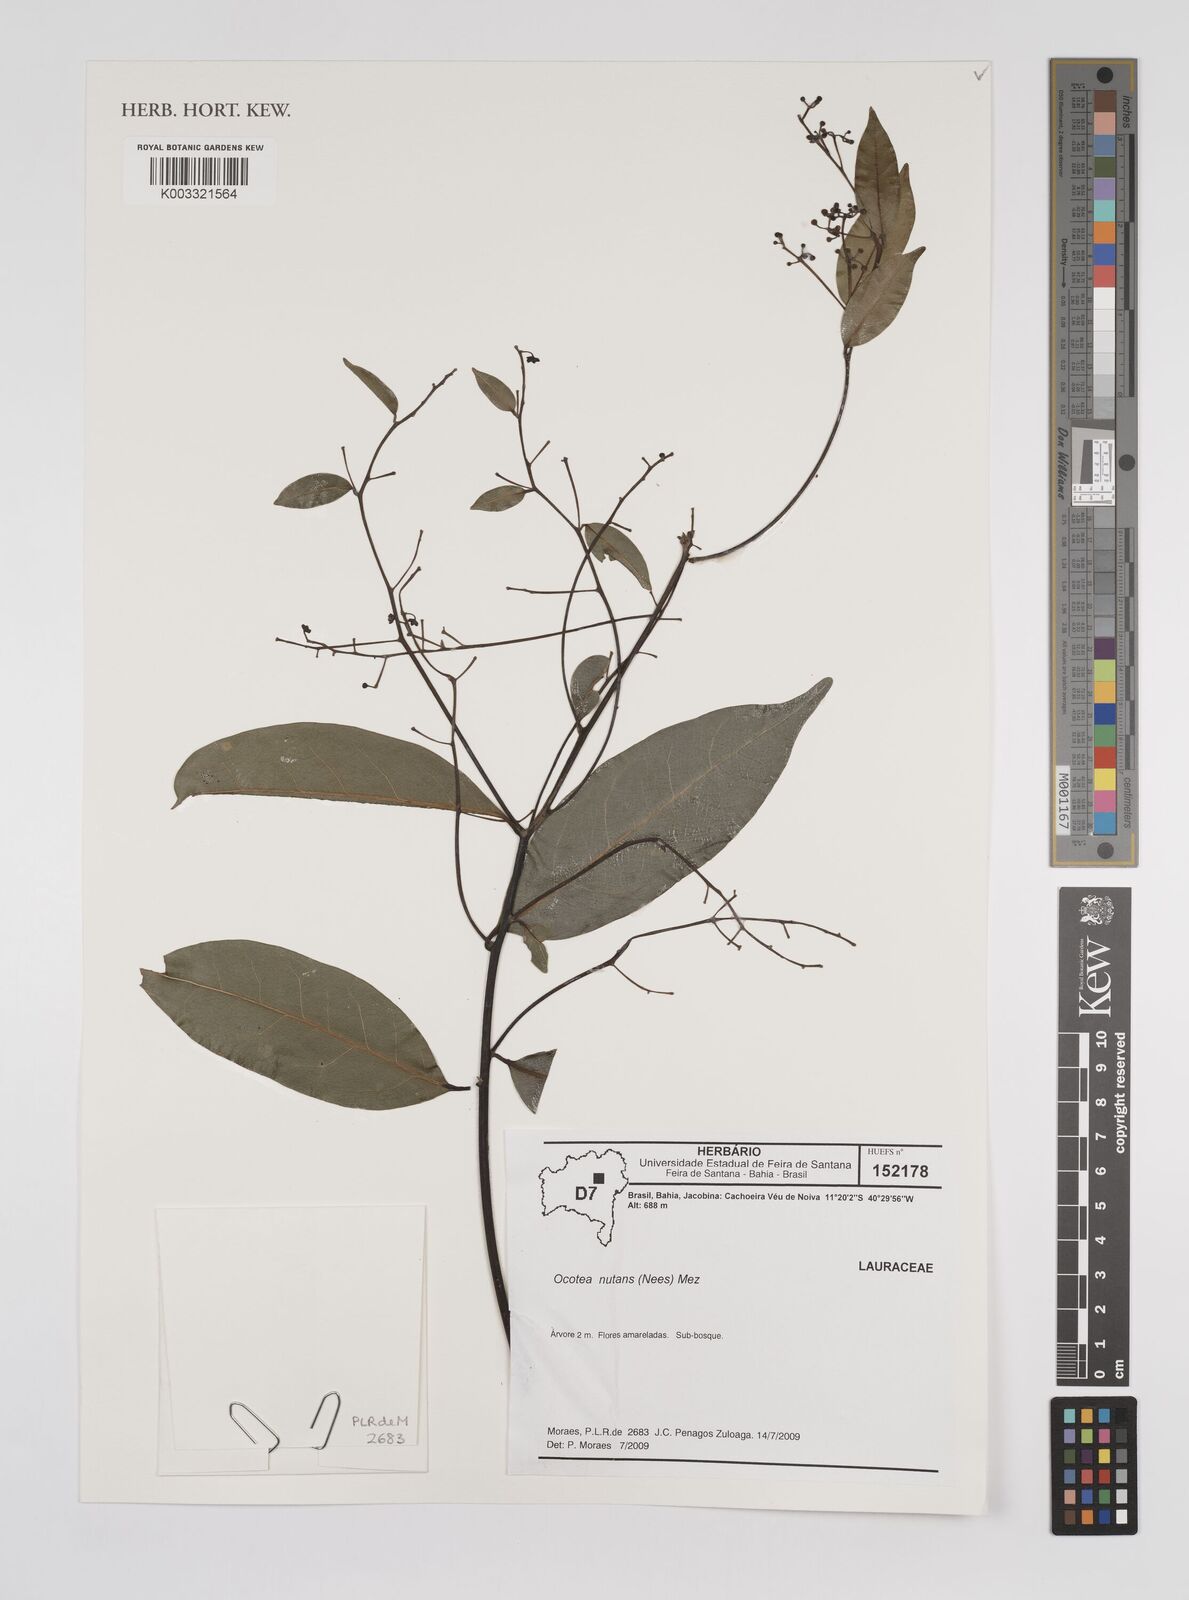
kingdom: Plantae
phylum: Tracheophyta
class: Magnoliopsida
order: Laurales
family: Lauraceae
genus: Mespilodaphne
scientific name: Mespilodaphne nutans
